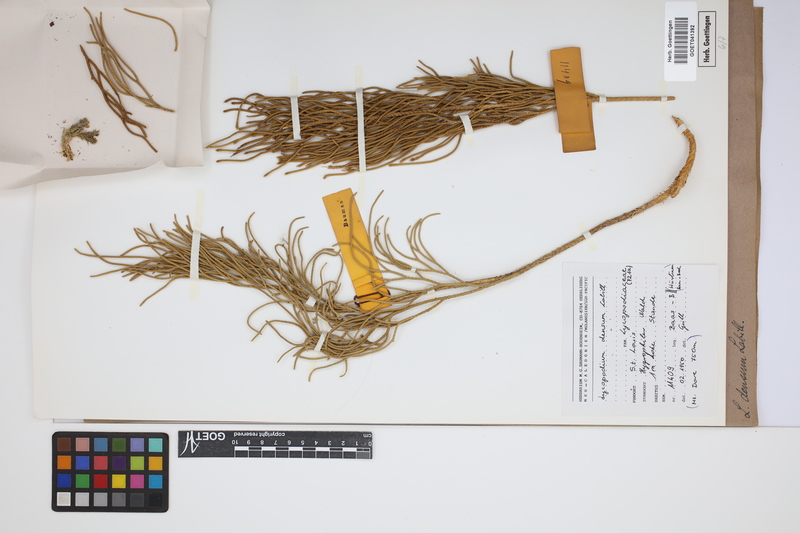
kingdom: Plantae
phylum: Tracheophyta
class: Lycopodiopsida
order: Lycopodiales
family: Lycopodiaceae
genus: Pseudolycopodium
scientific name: Pseudolycopodium densum
